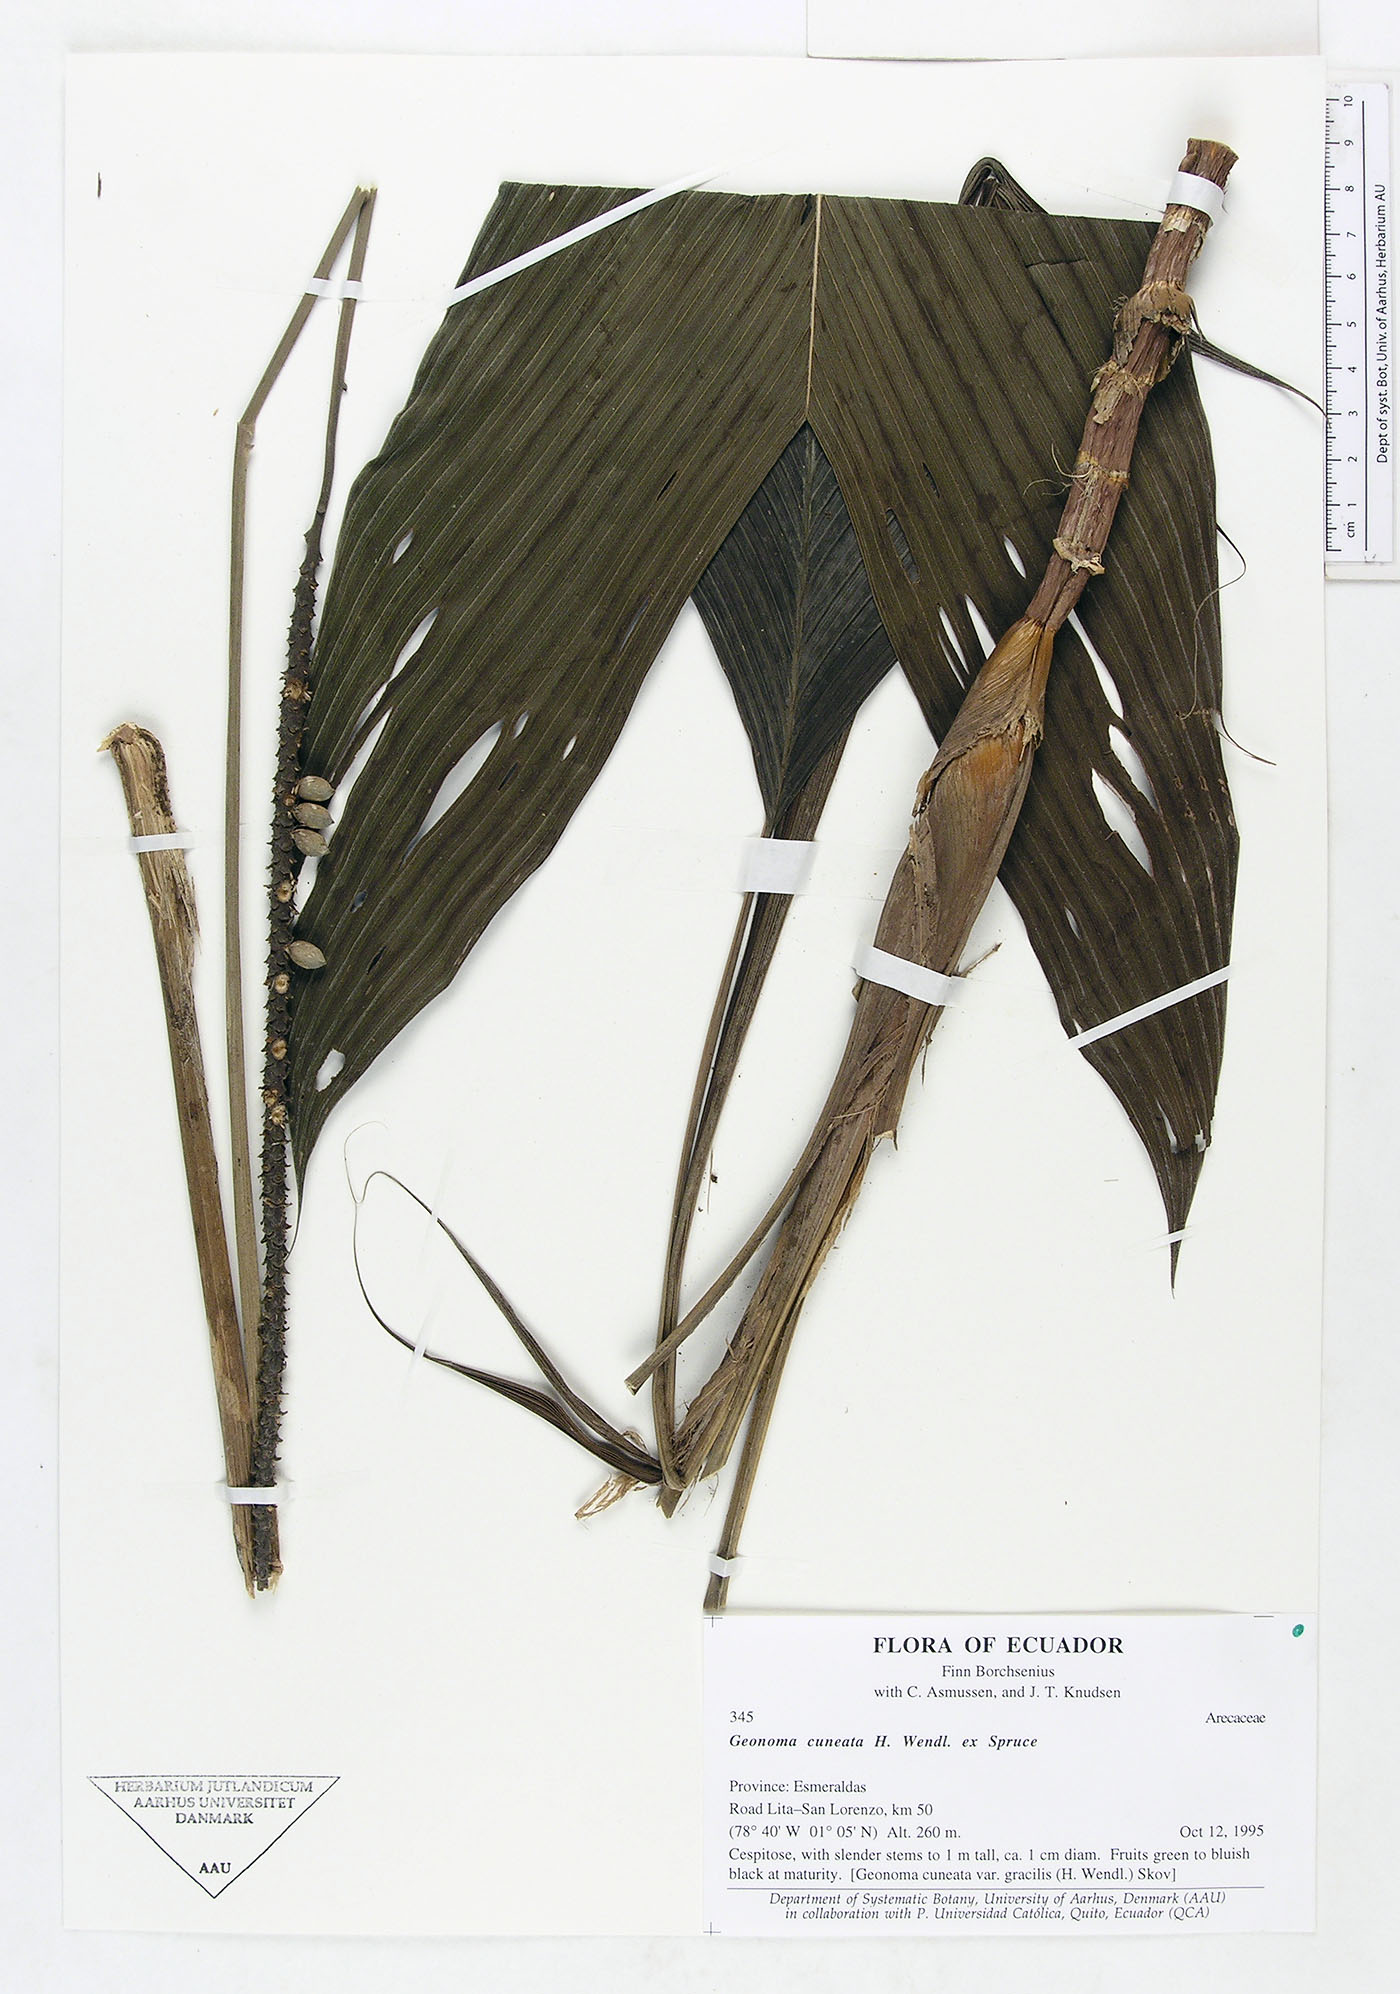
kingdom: Plantae
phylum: Tracheophyta
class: Liliopsida
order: Arecales
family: Arecaceae
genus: Geonoma
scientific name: Geonoma cuneata
